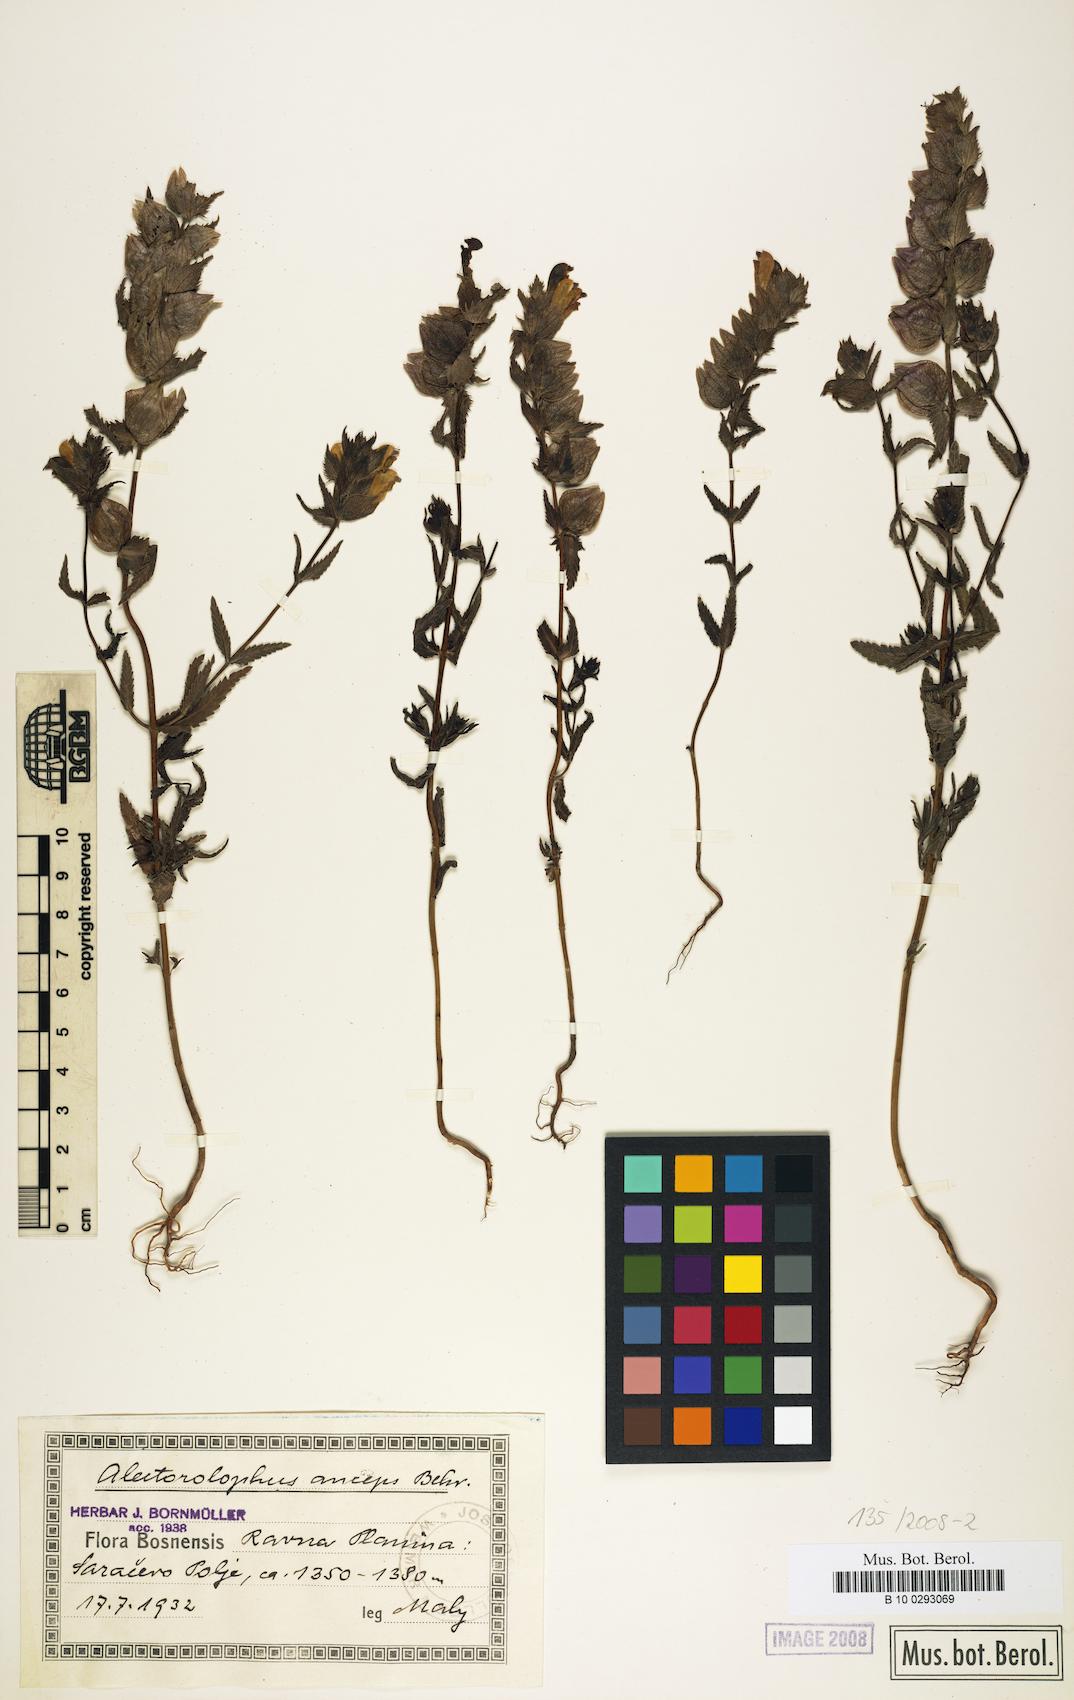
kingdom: Plantae
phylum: Tracheophyta
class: Magnoliopsida
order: Lamiales
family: Orobanchaceae
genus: Rhinanthus
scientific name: Rhinanthus wagneri
